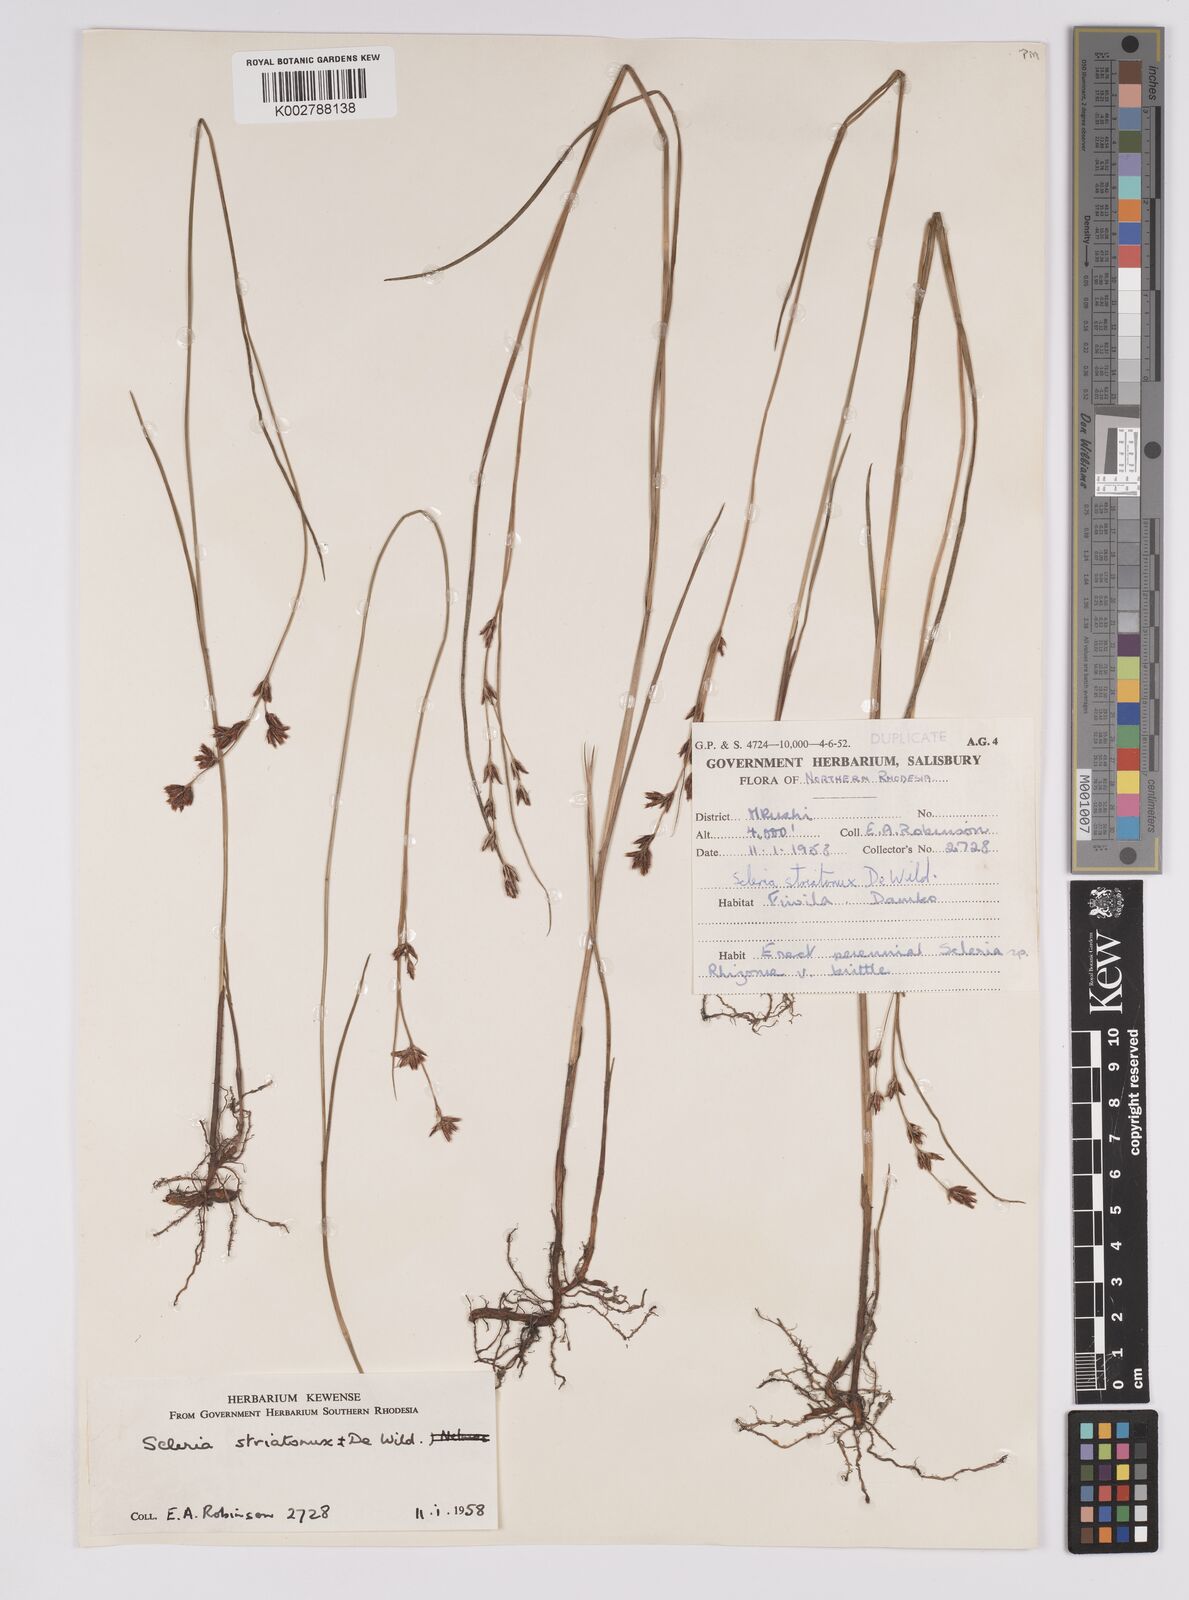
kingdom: Plantae
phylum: Tracheophyta
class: Liliopsida
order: Poales
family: Cyperaceae
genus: Scleria
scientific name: Scleria woodii
